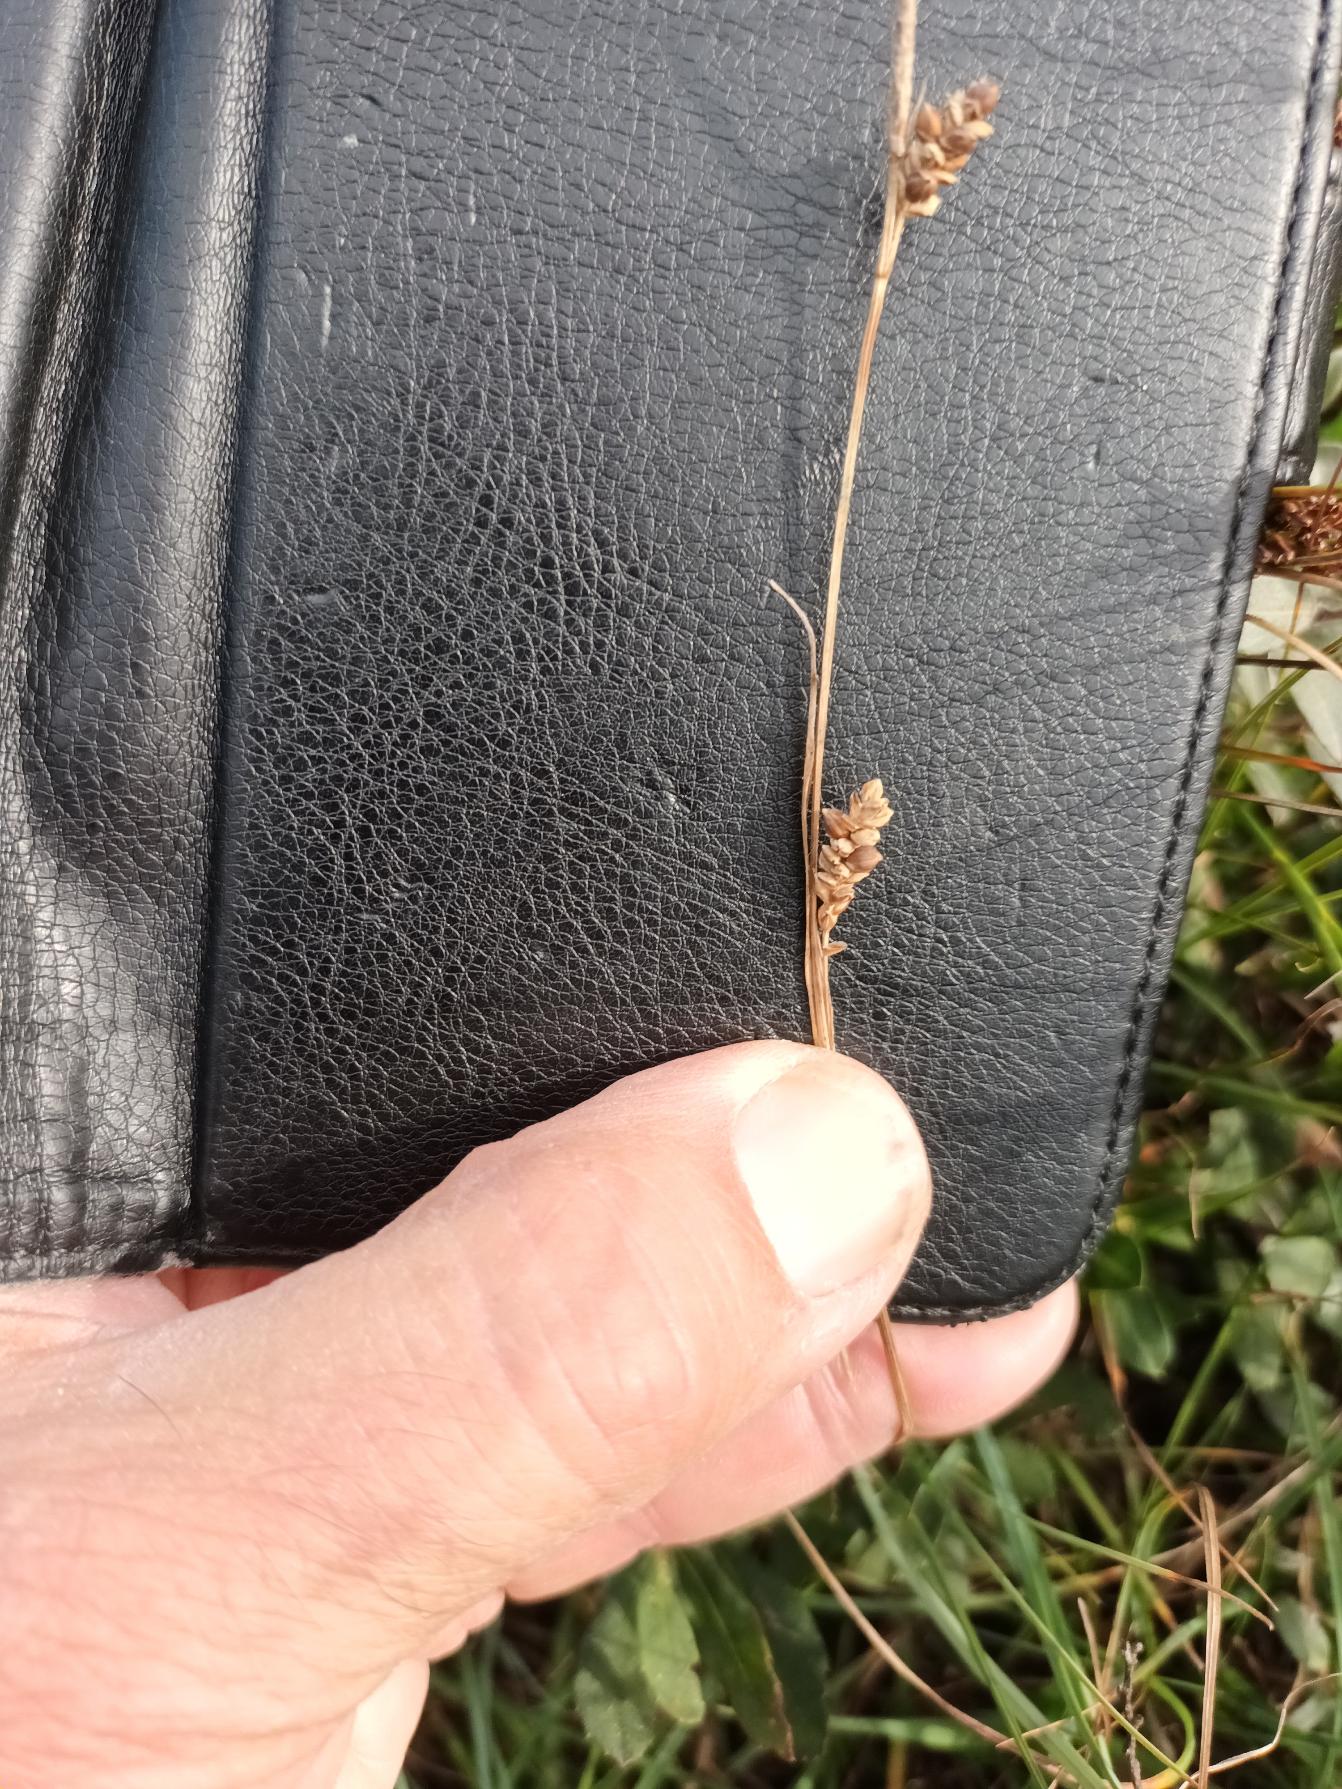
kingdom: Plantae
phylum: Tracheophyta
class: Liliopsida
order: Poales
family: Cyperaceae
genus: Carex
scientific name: Carex panicea
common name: Hirse-star
